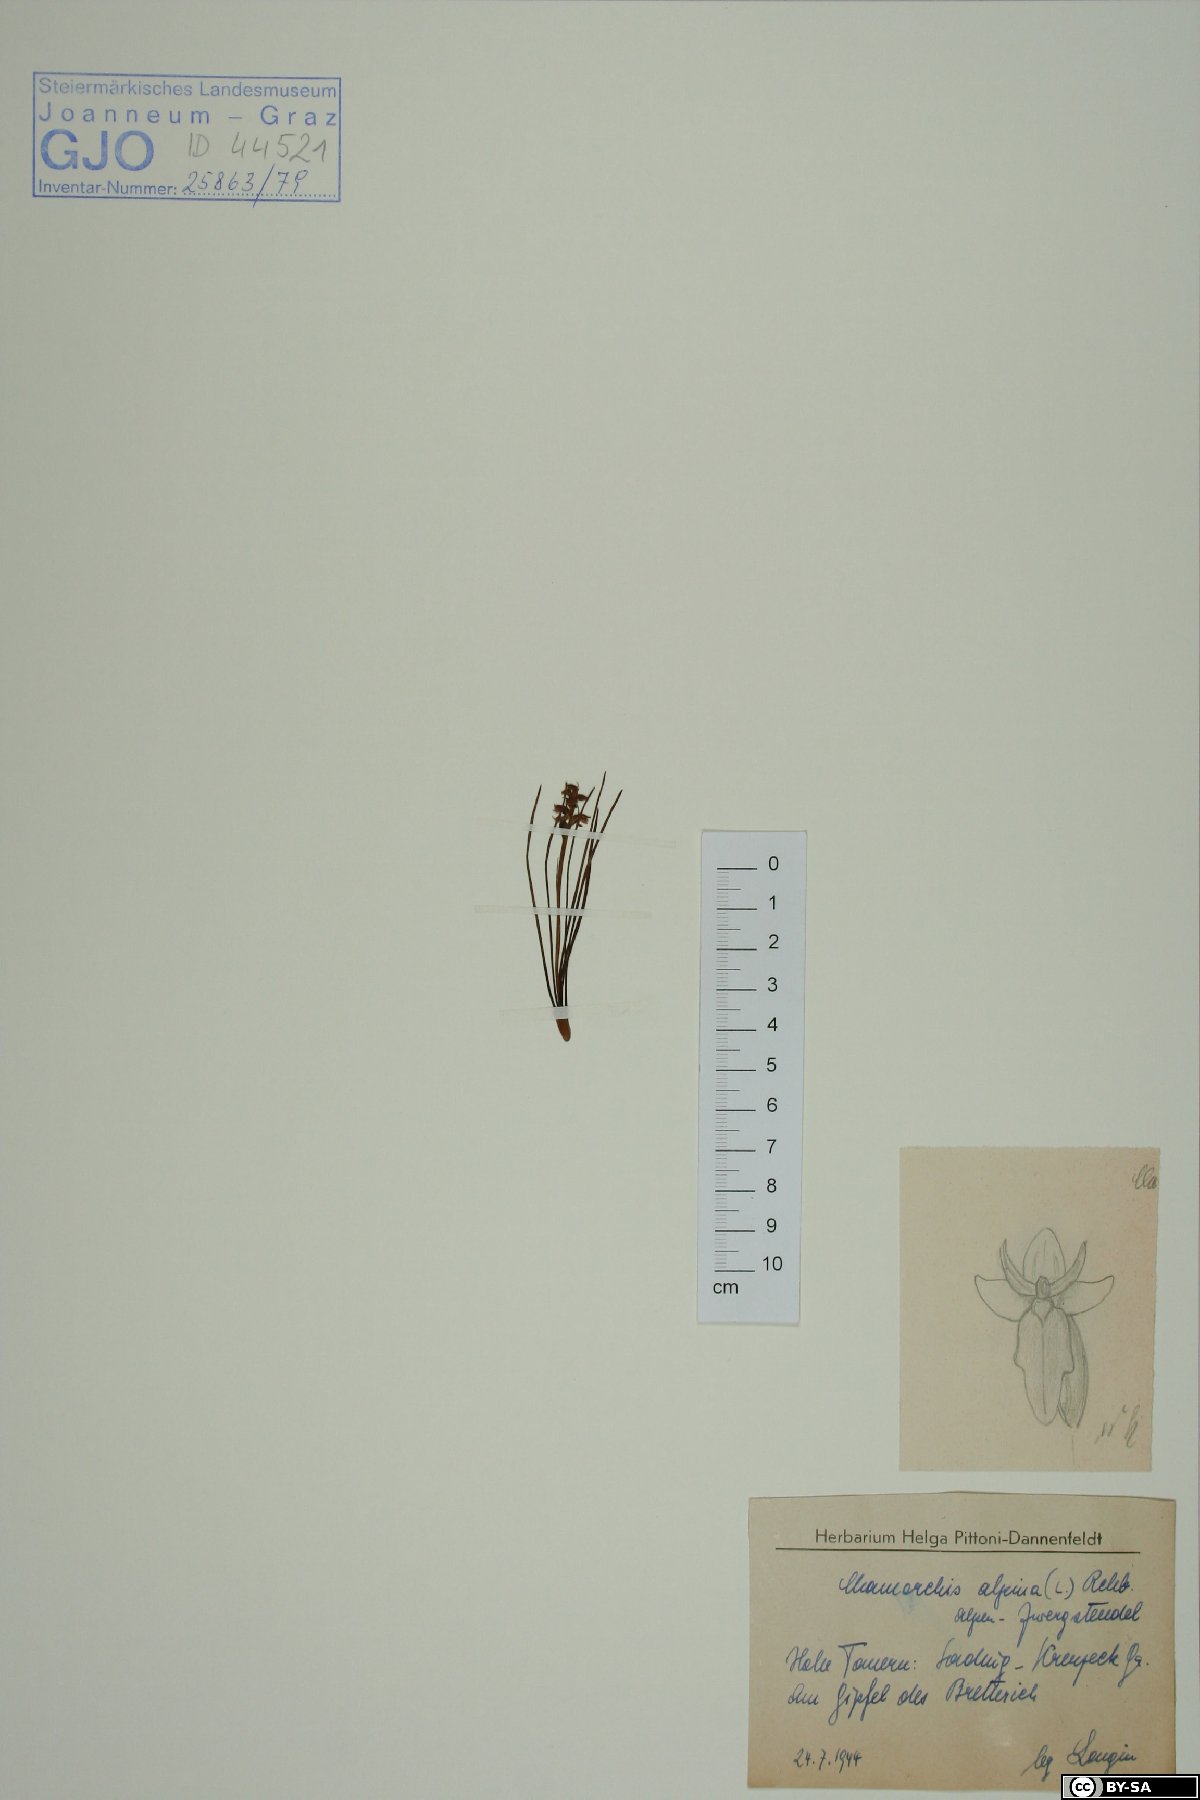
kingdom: Plantae
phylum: Tracheophyta
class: Liliopsida
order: Asparagales
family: Orchidaceae
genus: Chamorchis
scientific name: Chamorchis alpina
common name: Alpine chamorchis
